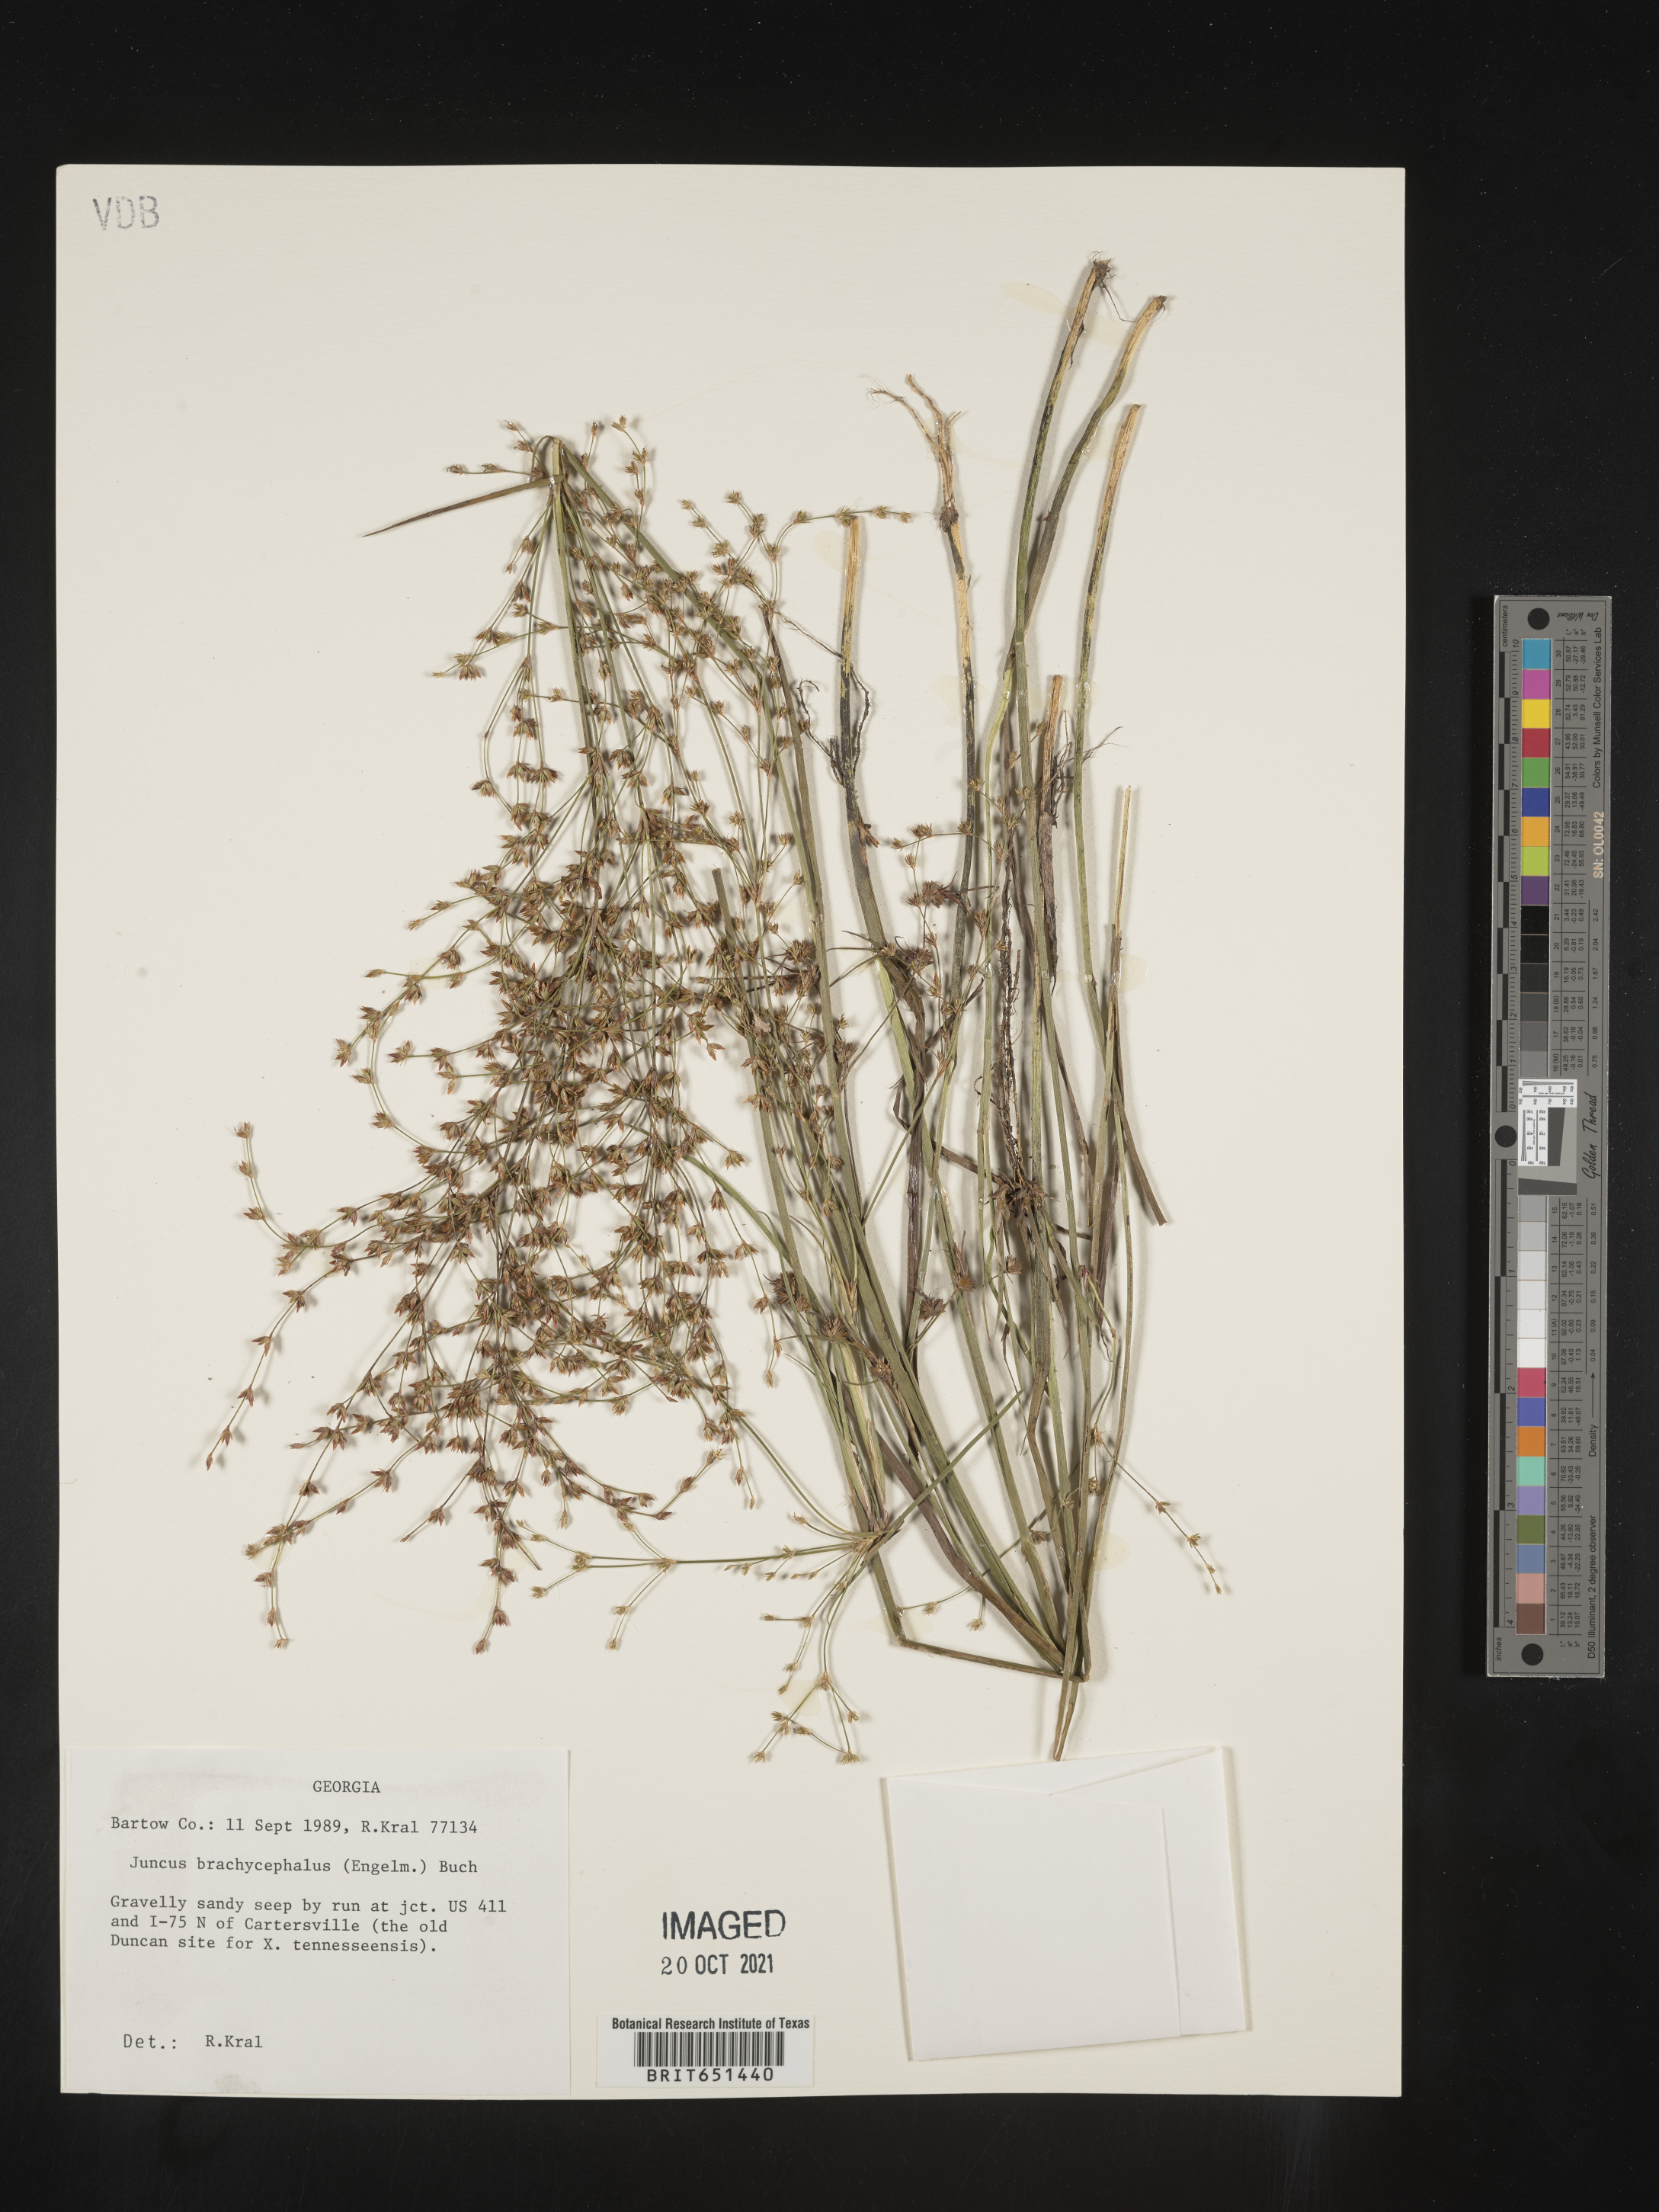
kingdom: Plantae
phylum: Tracheophyta
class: Liliopsida
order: Poales
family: Juncaceae
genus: Juncus
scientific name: Juncus brachycephalus
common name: Short-headed rush
